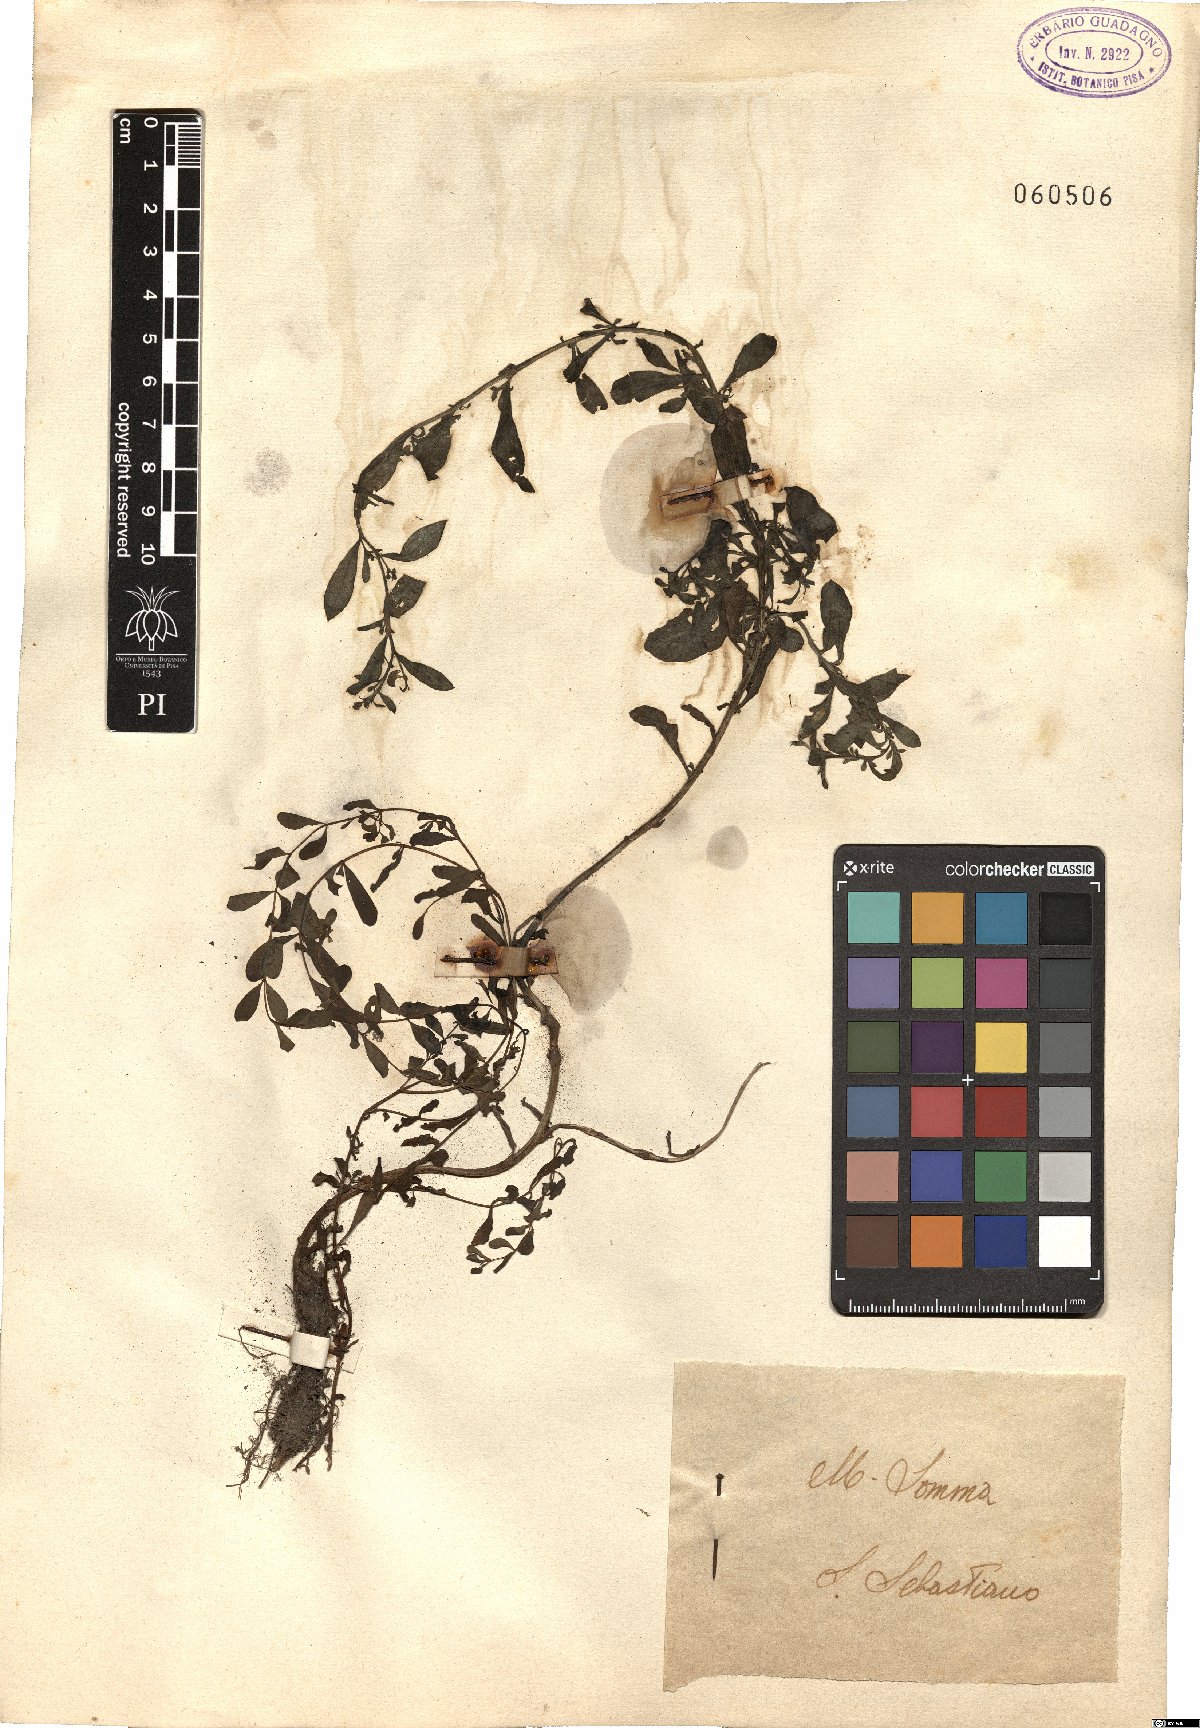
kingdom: Plantae
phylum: Tracheophyta
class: Magnoliopsida
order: Malpighiales
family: Hypericaceae
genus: Hypericum
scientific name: Hypericum
